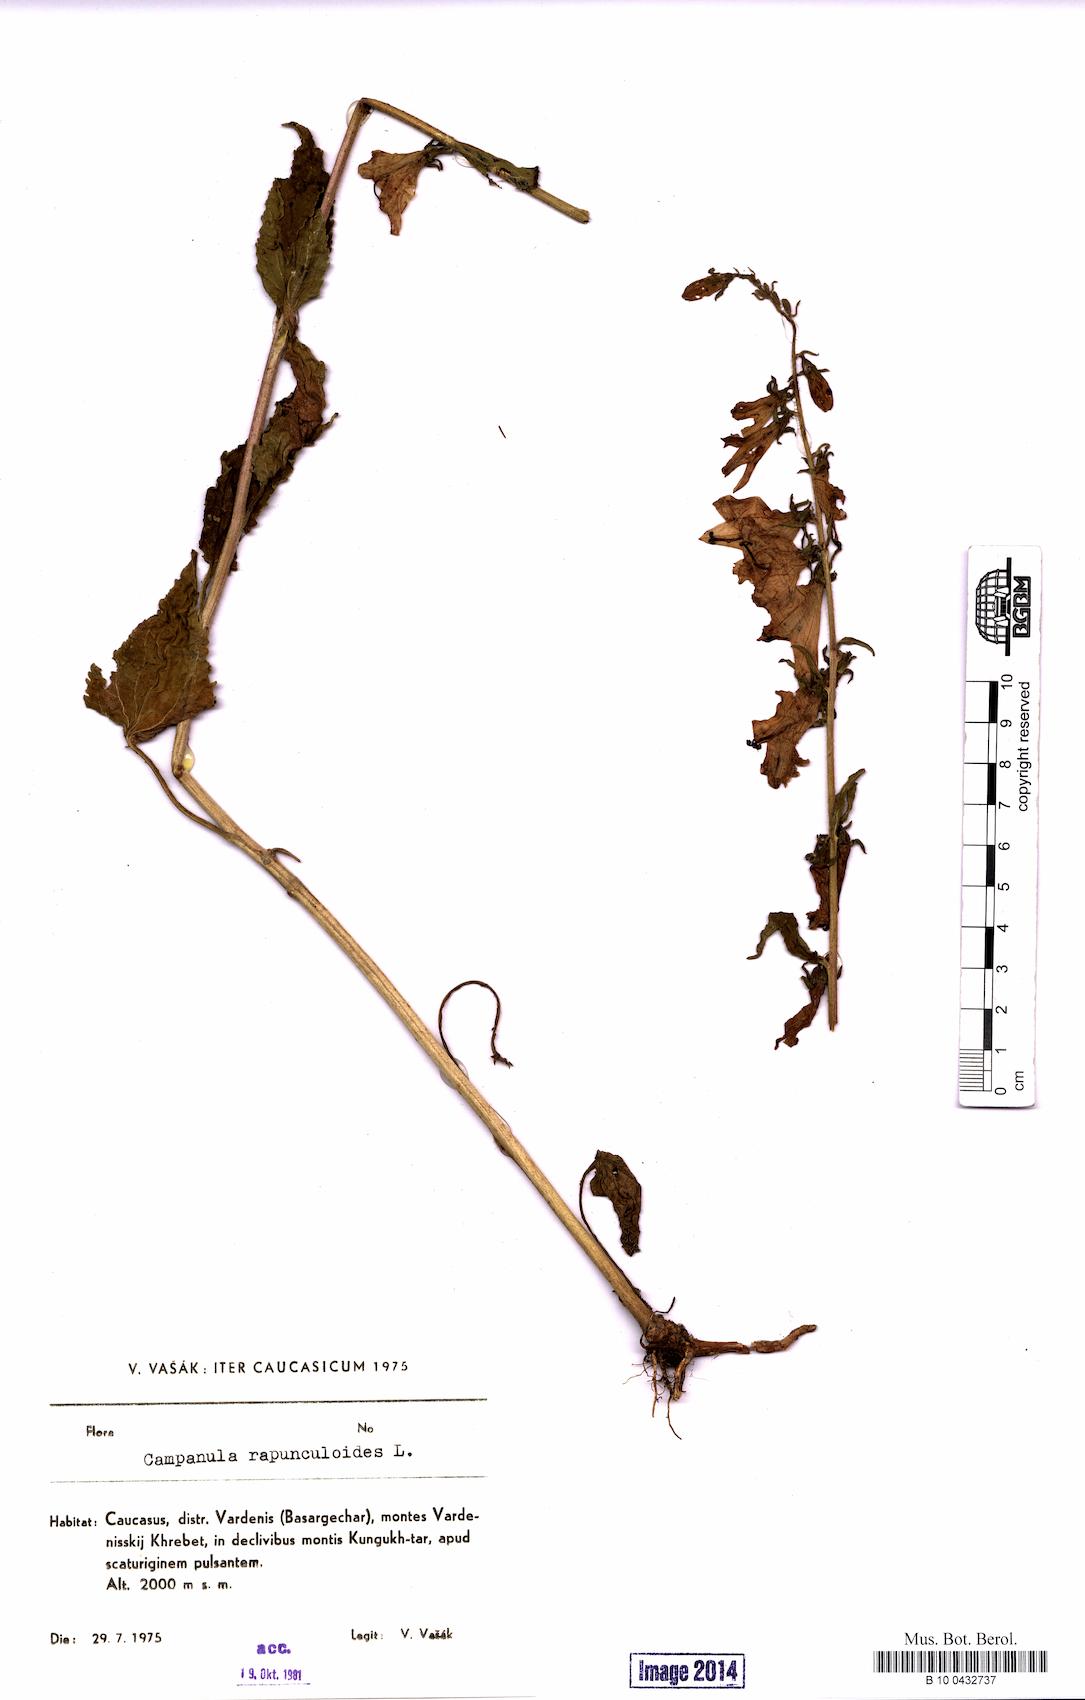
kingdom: Plantae
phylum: Tracheophyta
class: Magnoliopsida
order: Asterales
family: Campanulaceae
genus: Campanula
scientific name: Campanula rapunculoides
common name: Creeping bellflower
